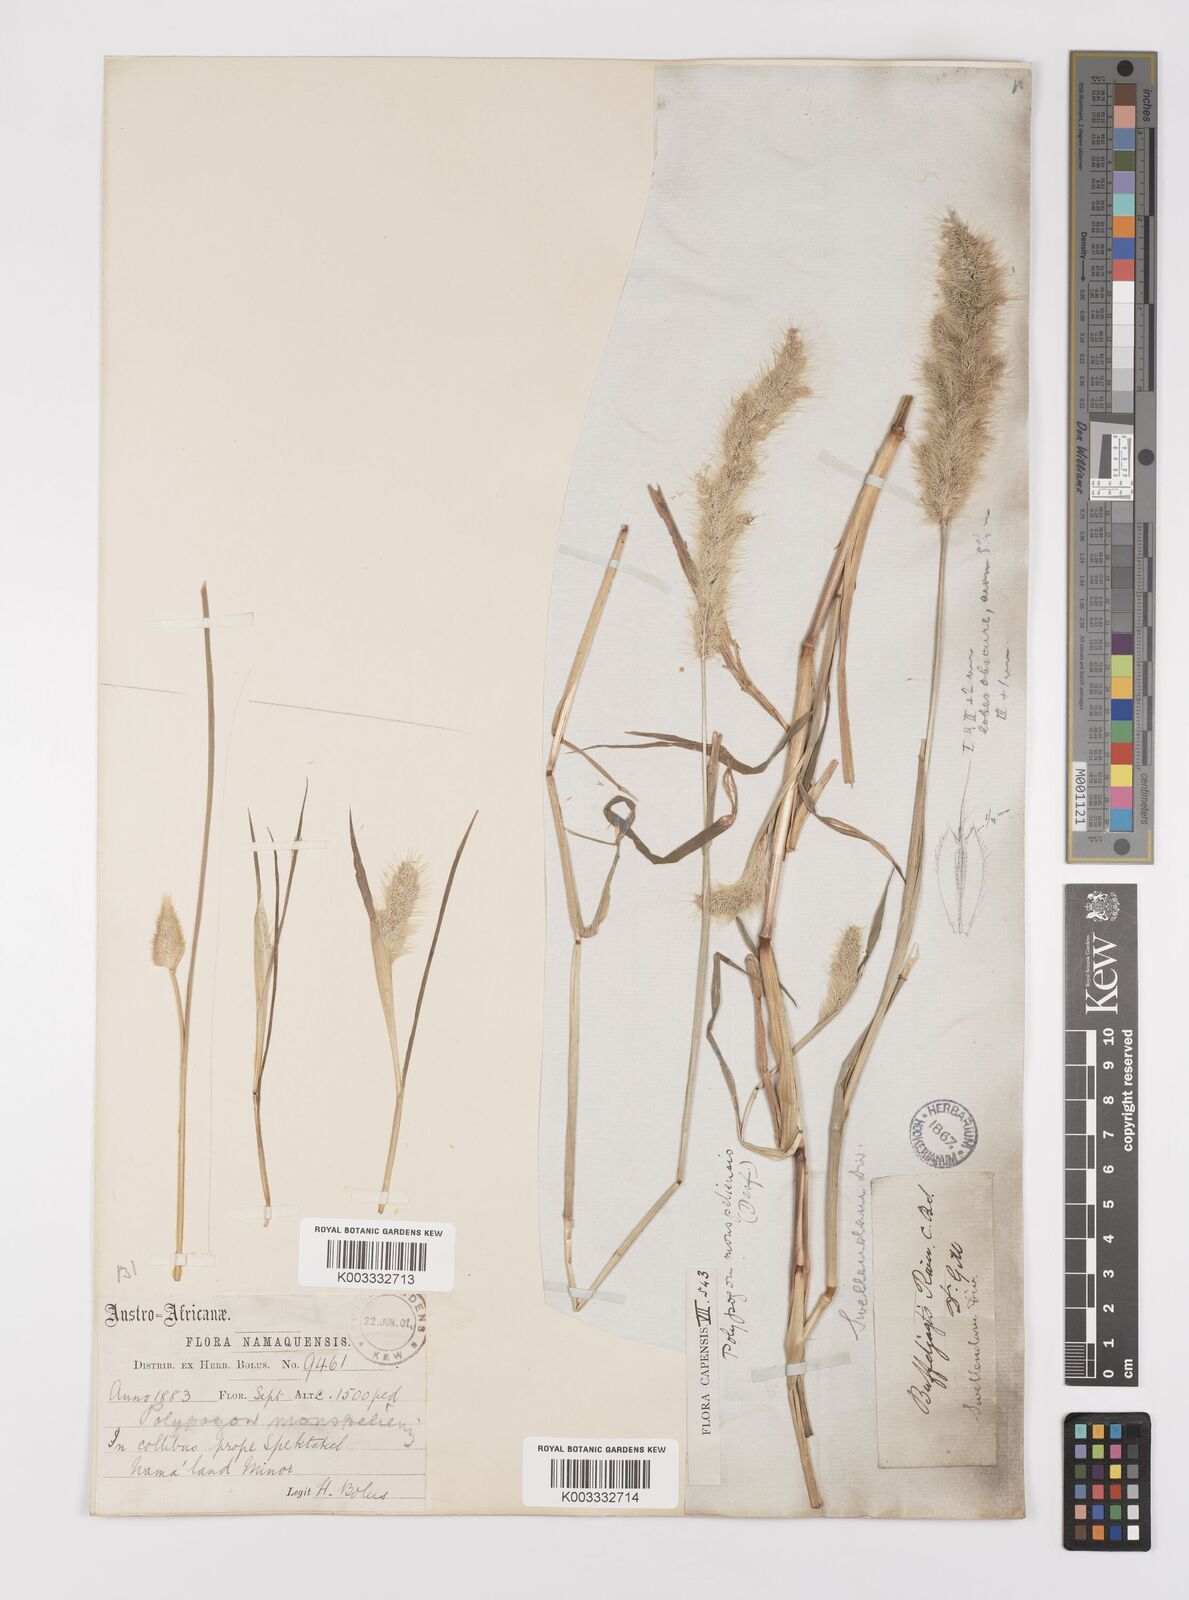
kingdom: Plantae
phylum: Tracheophyta
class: Liliopsida
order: Poales
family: Poaceae
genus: Polypogon
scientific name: Polypogon monspeliensis
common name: Annual rabbitsfoot grass
